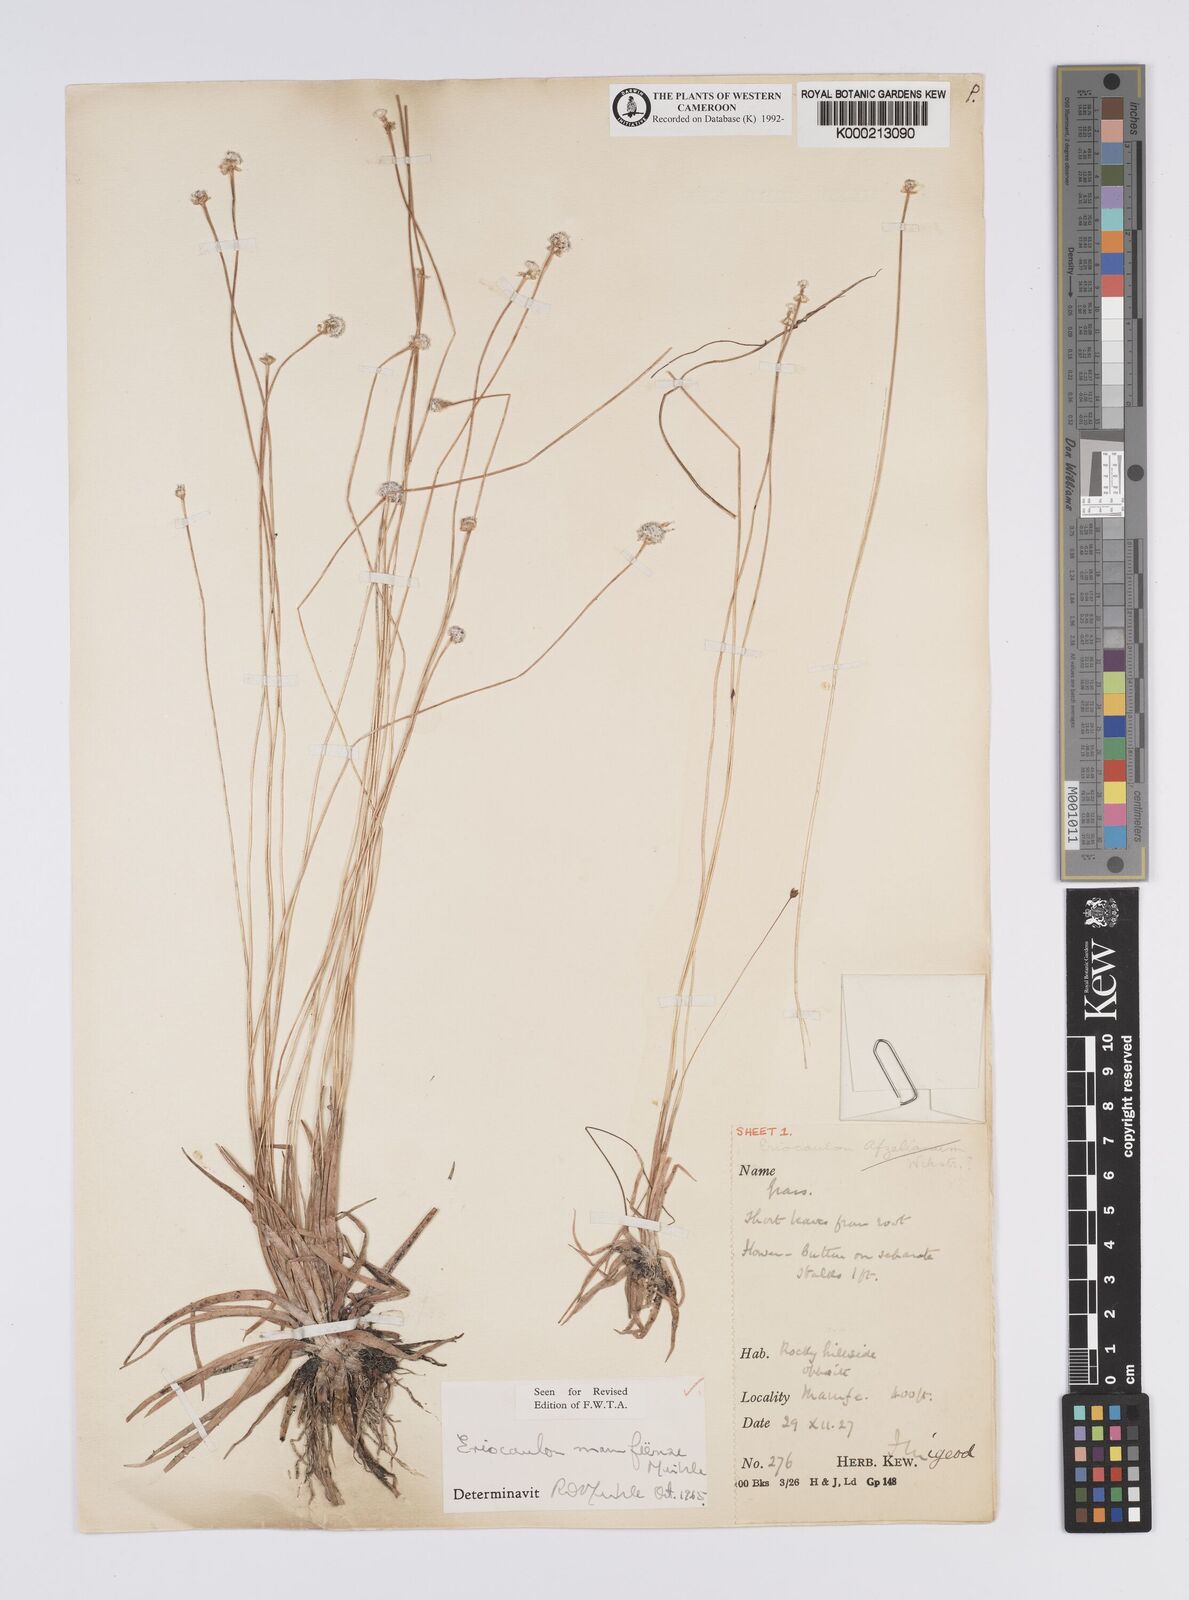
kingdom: Plantae
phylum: Tracheophyta
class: Liliopsida
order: Poales
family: Eriocaulaceae
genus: Eriocaulon
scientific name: Eriocaulon
